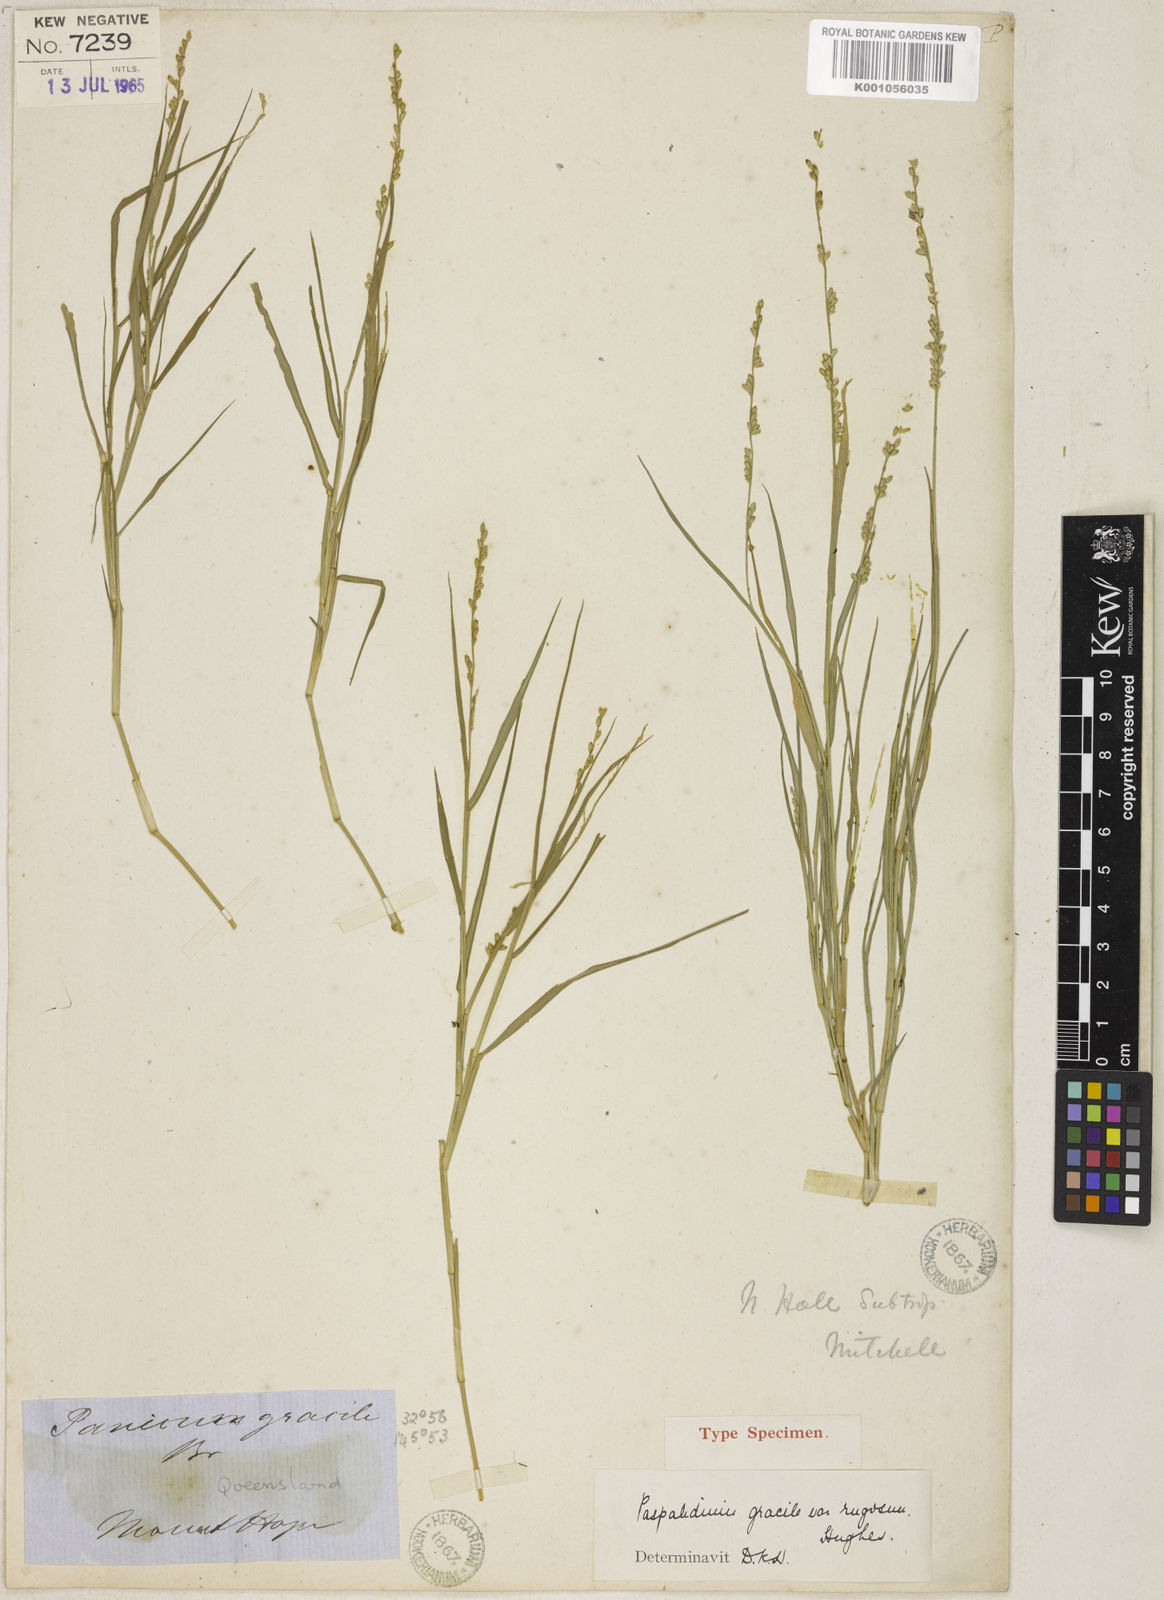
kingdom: Plantae
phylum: Tracheophyta
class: Liliopsida
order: Poales
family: Poaceae
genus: Setaria
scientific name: Setaria constricta
